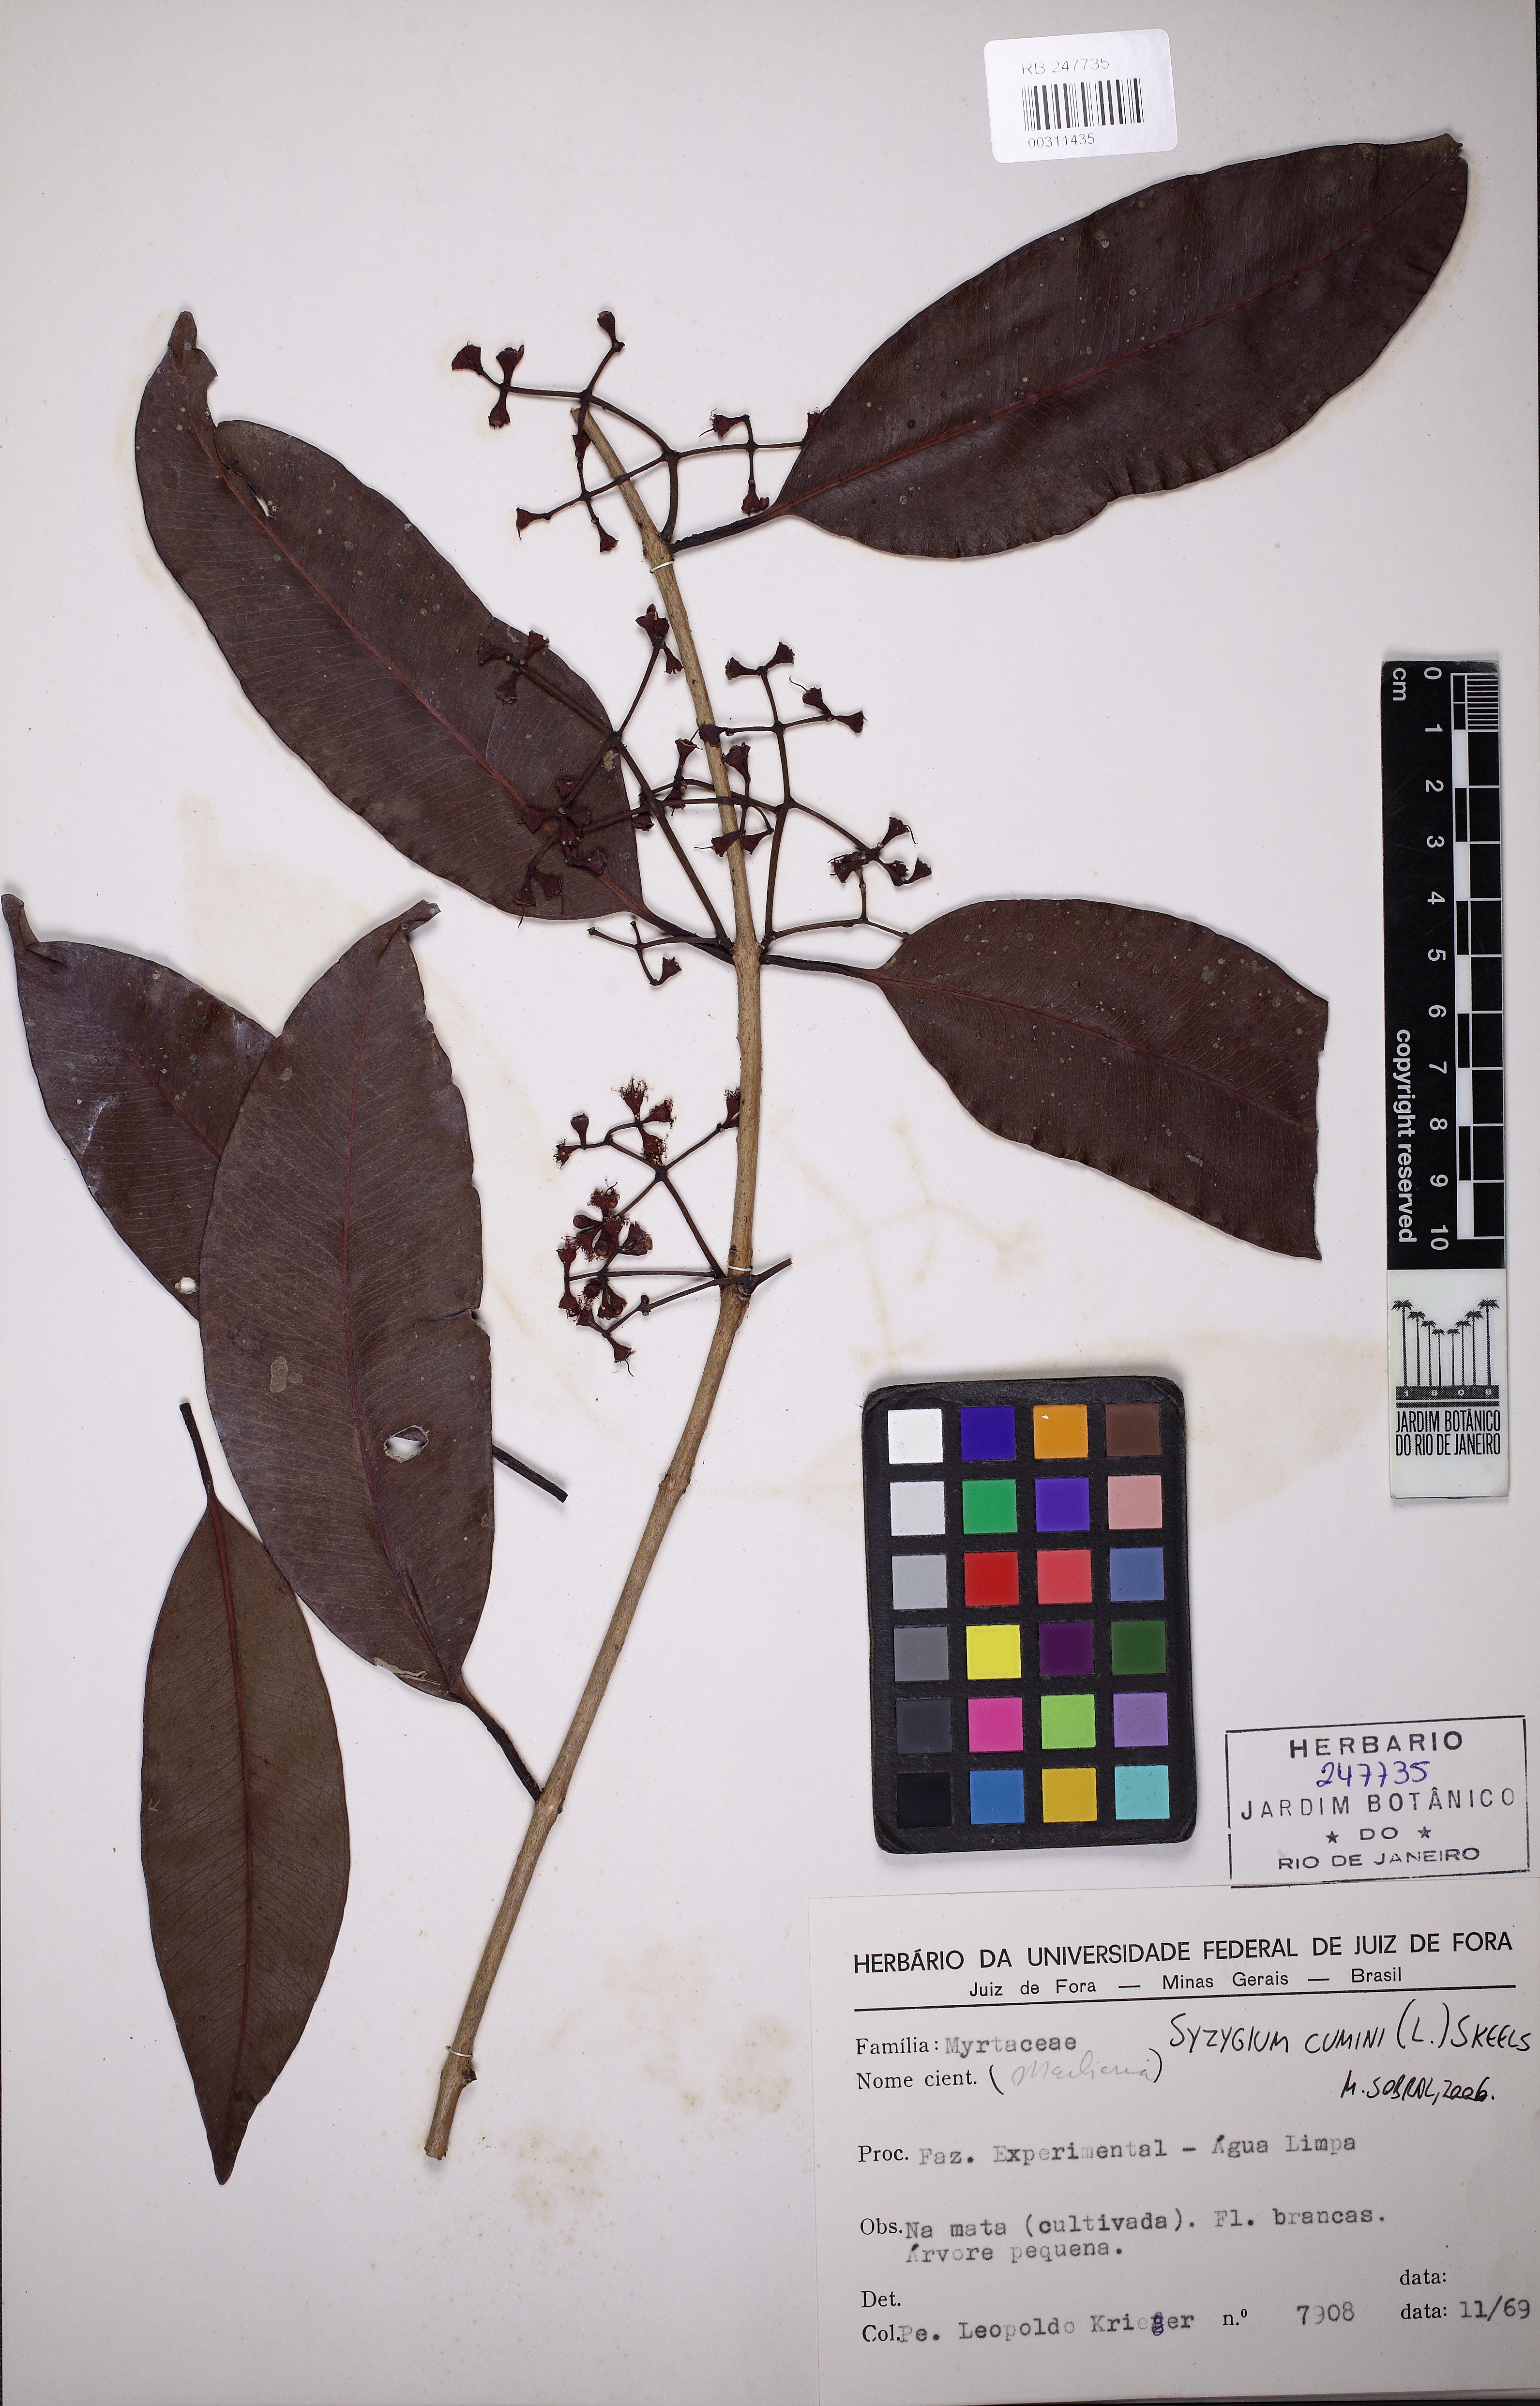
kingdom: Plantae
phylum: Tracheophyta
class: Magnoliopsida
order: Myrtales
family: Myrtaceae
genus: Syzygium
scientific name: Syzygium cumini
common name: Java plum
